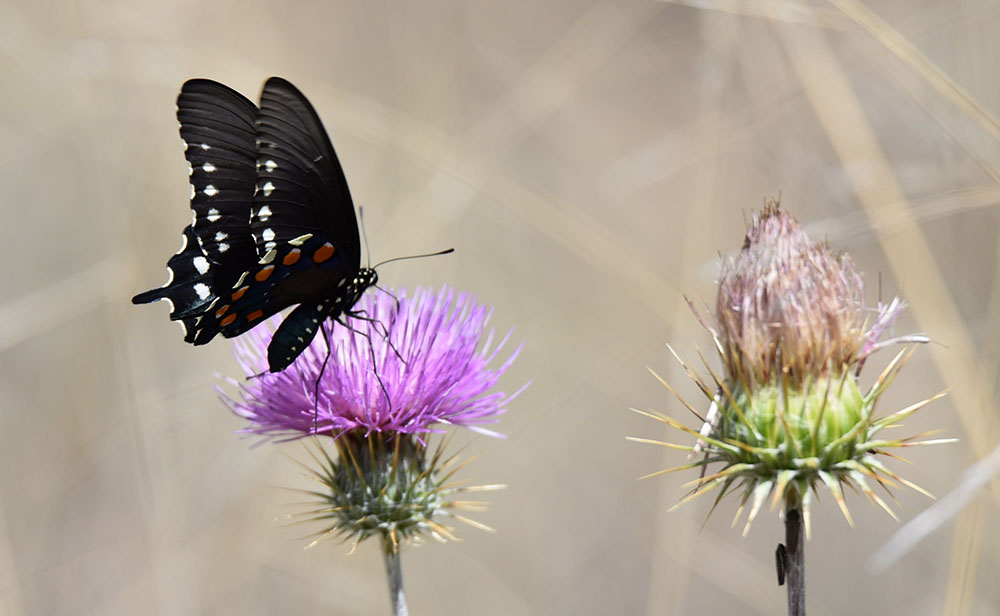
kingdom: Animalia
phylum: Arthropoda
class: Insecta
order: Lepidoptera
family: Papilionidae
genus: Battus
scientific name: Battus philenor
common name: Pipevine swallowtail
